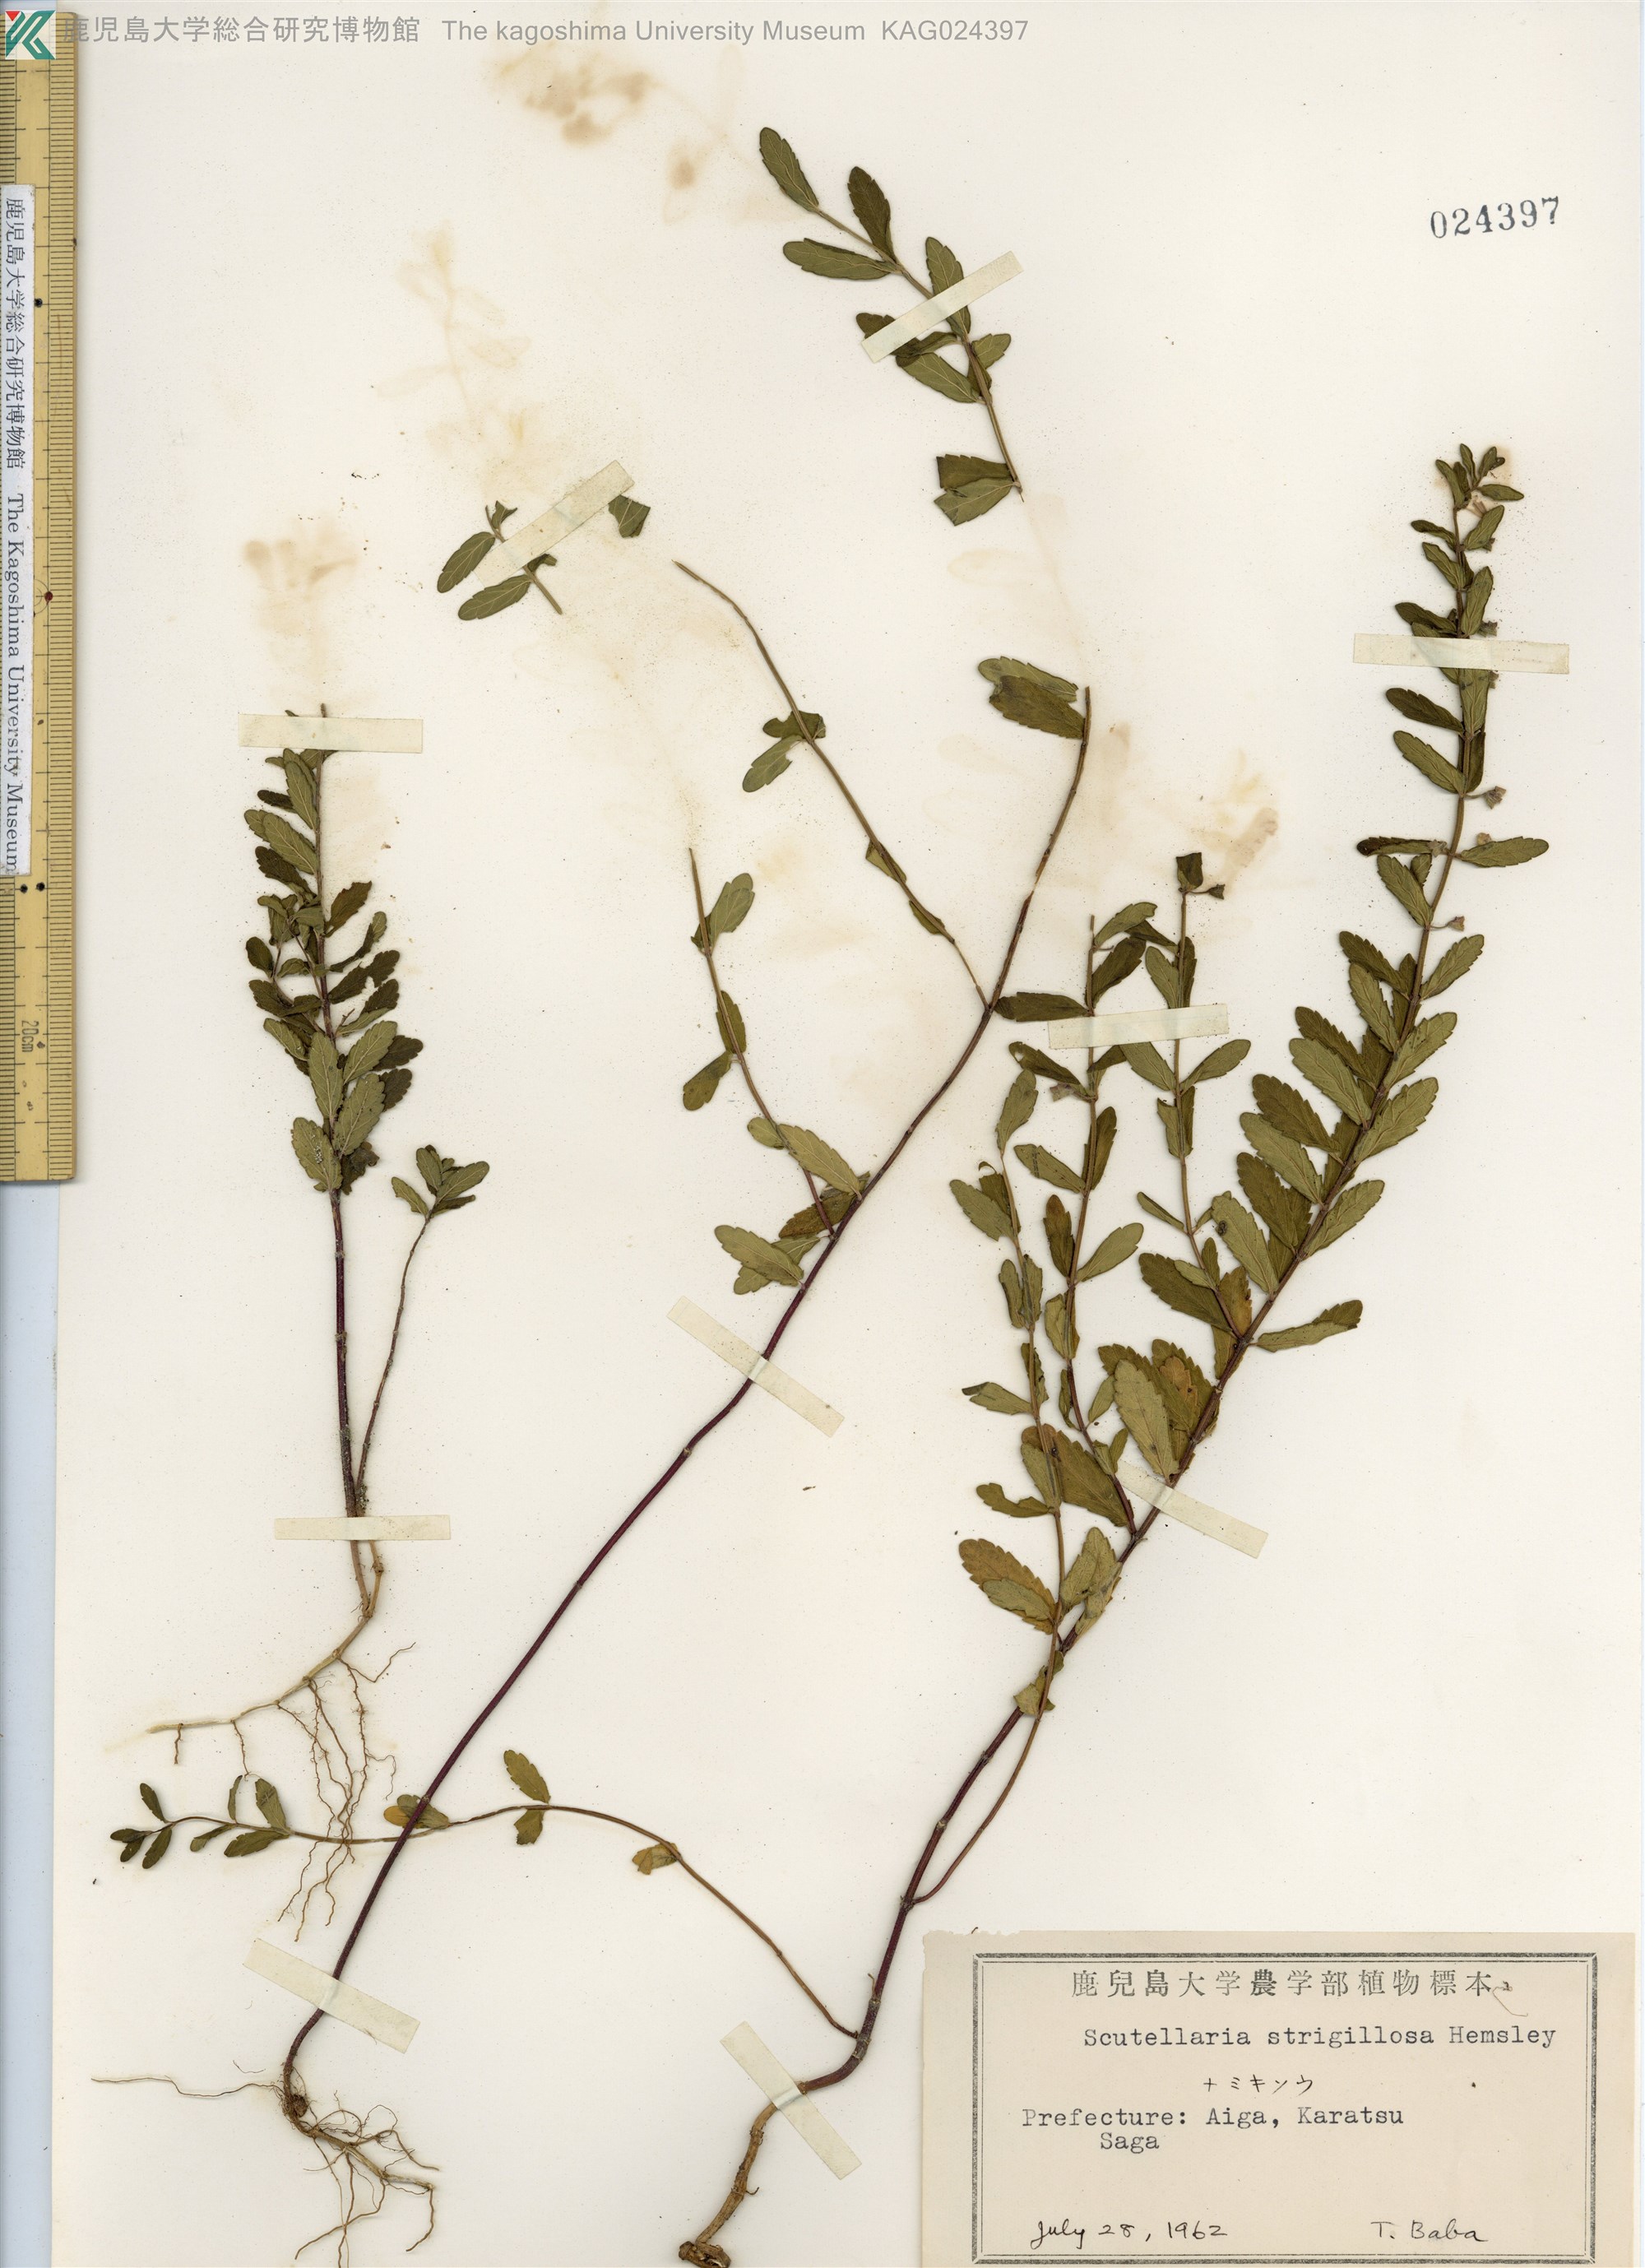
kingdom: Plantae
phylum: Tracheophyta
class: Magnoliopsida
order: Lamiales
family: Lamiaceae
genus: Scutellaria
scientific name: Scutellaria strigillosa
